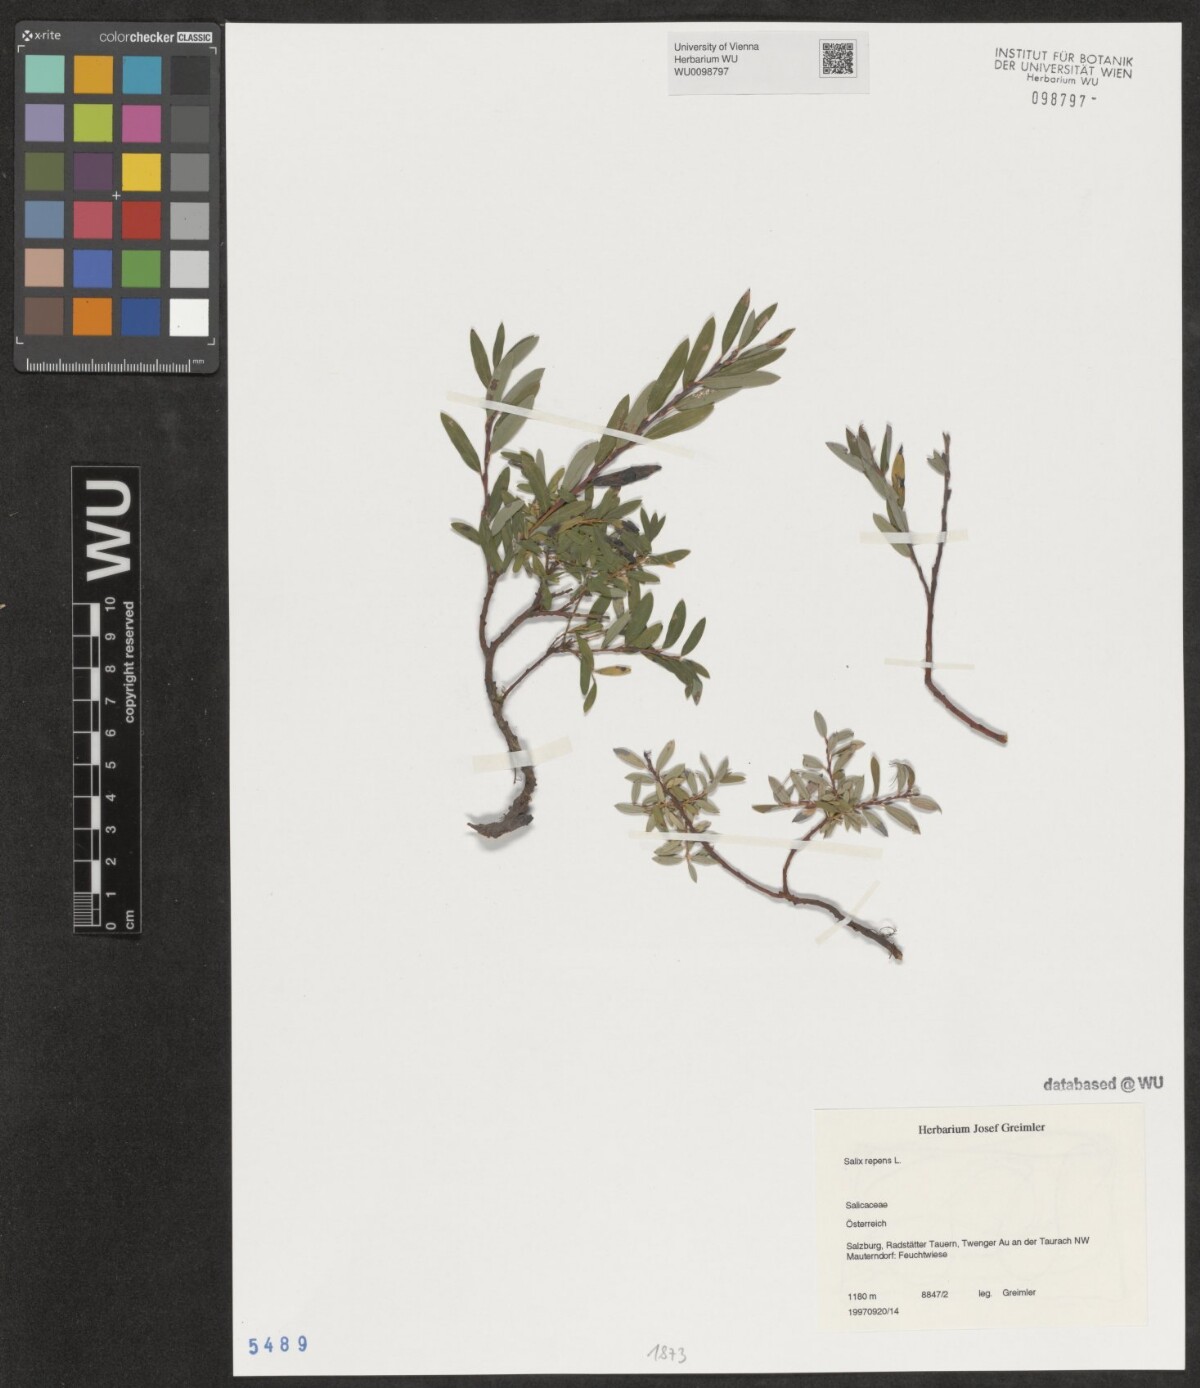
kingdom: Plantae
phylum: Tracheophyta
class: Magnoliopsida
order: Malpighiales
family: Salicaceae
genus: Salix
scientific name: Salix repens
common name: Creeping willow
